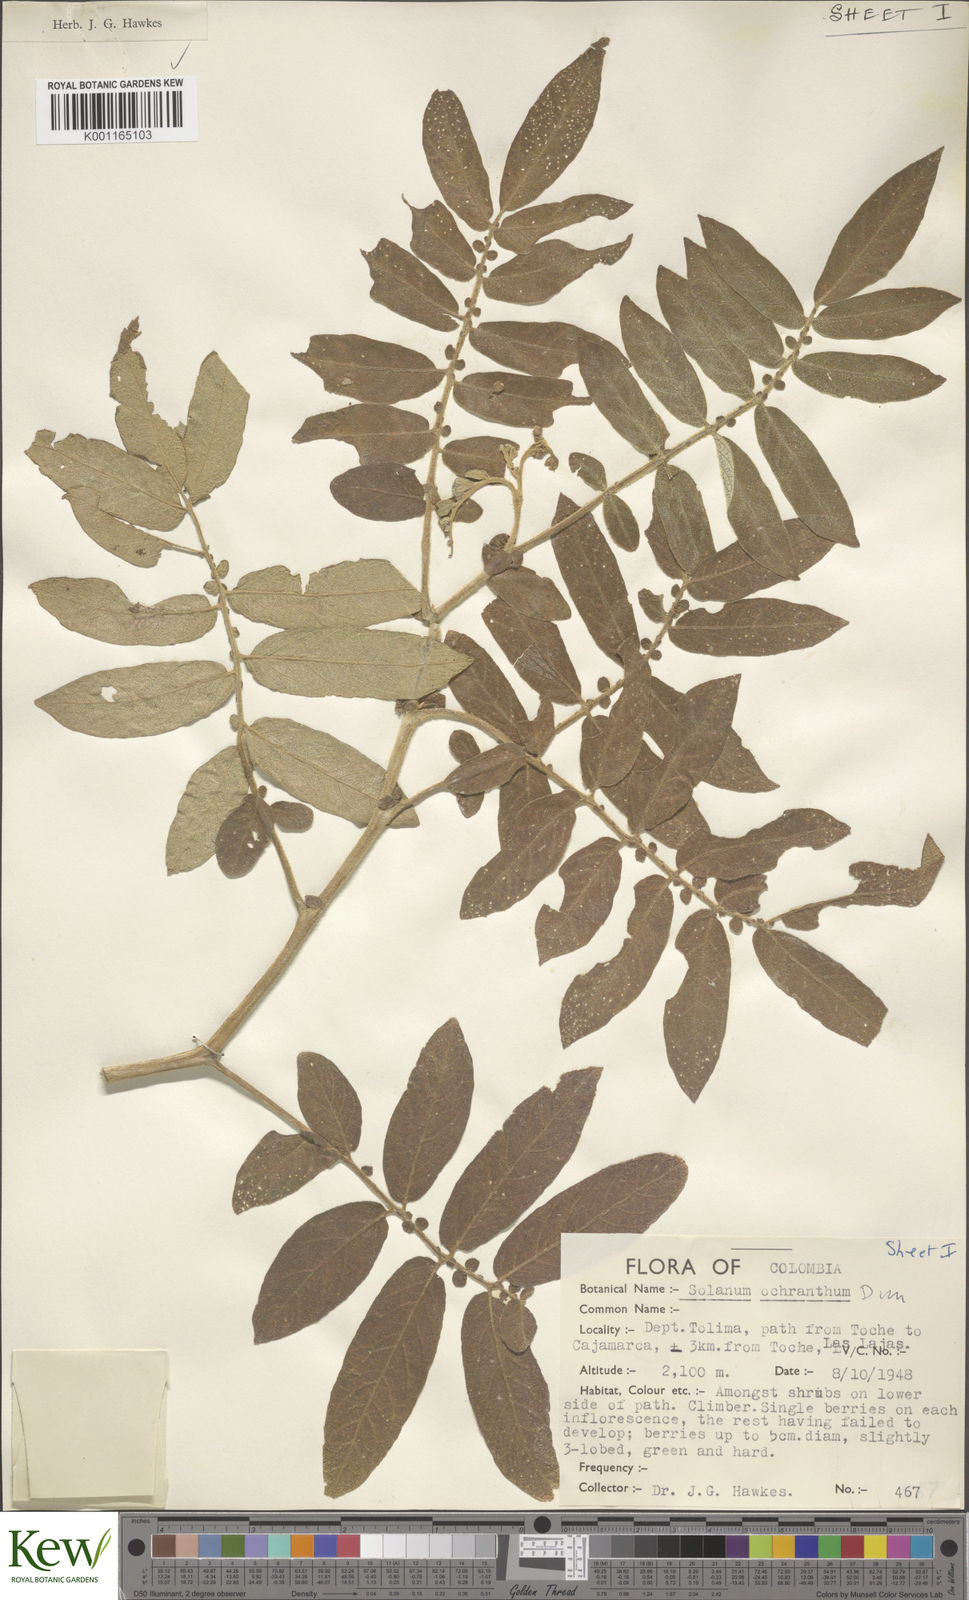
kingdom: Plantae
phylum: Tracheophyta
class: Magnoliopsida
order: Solanales
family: Solanaceae
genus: Solanum
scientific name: Solanum ochranthum
